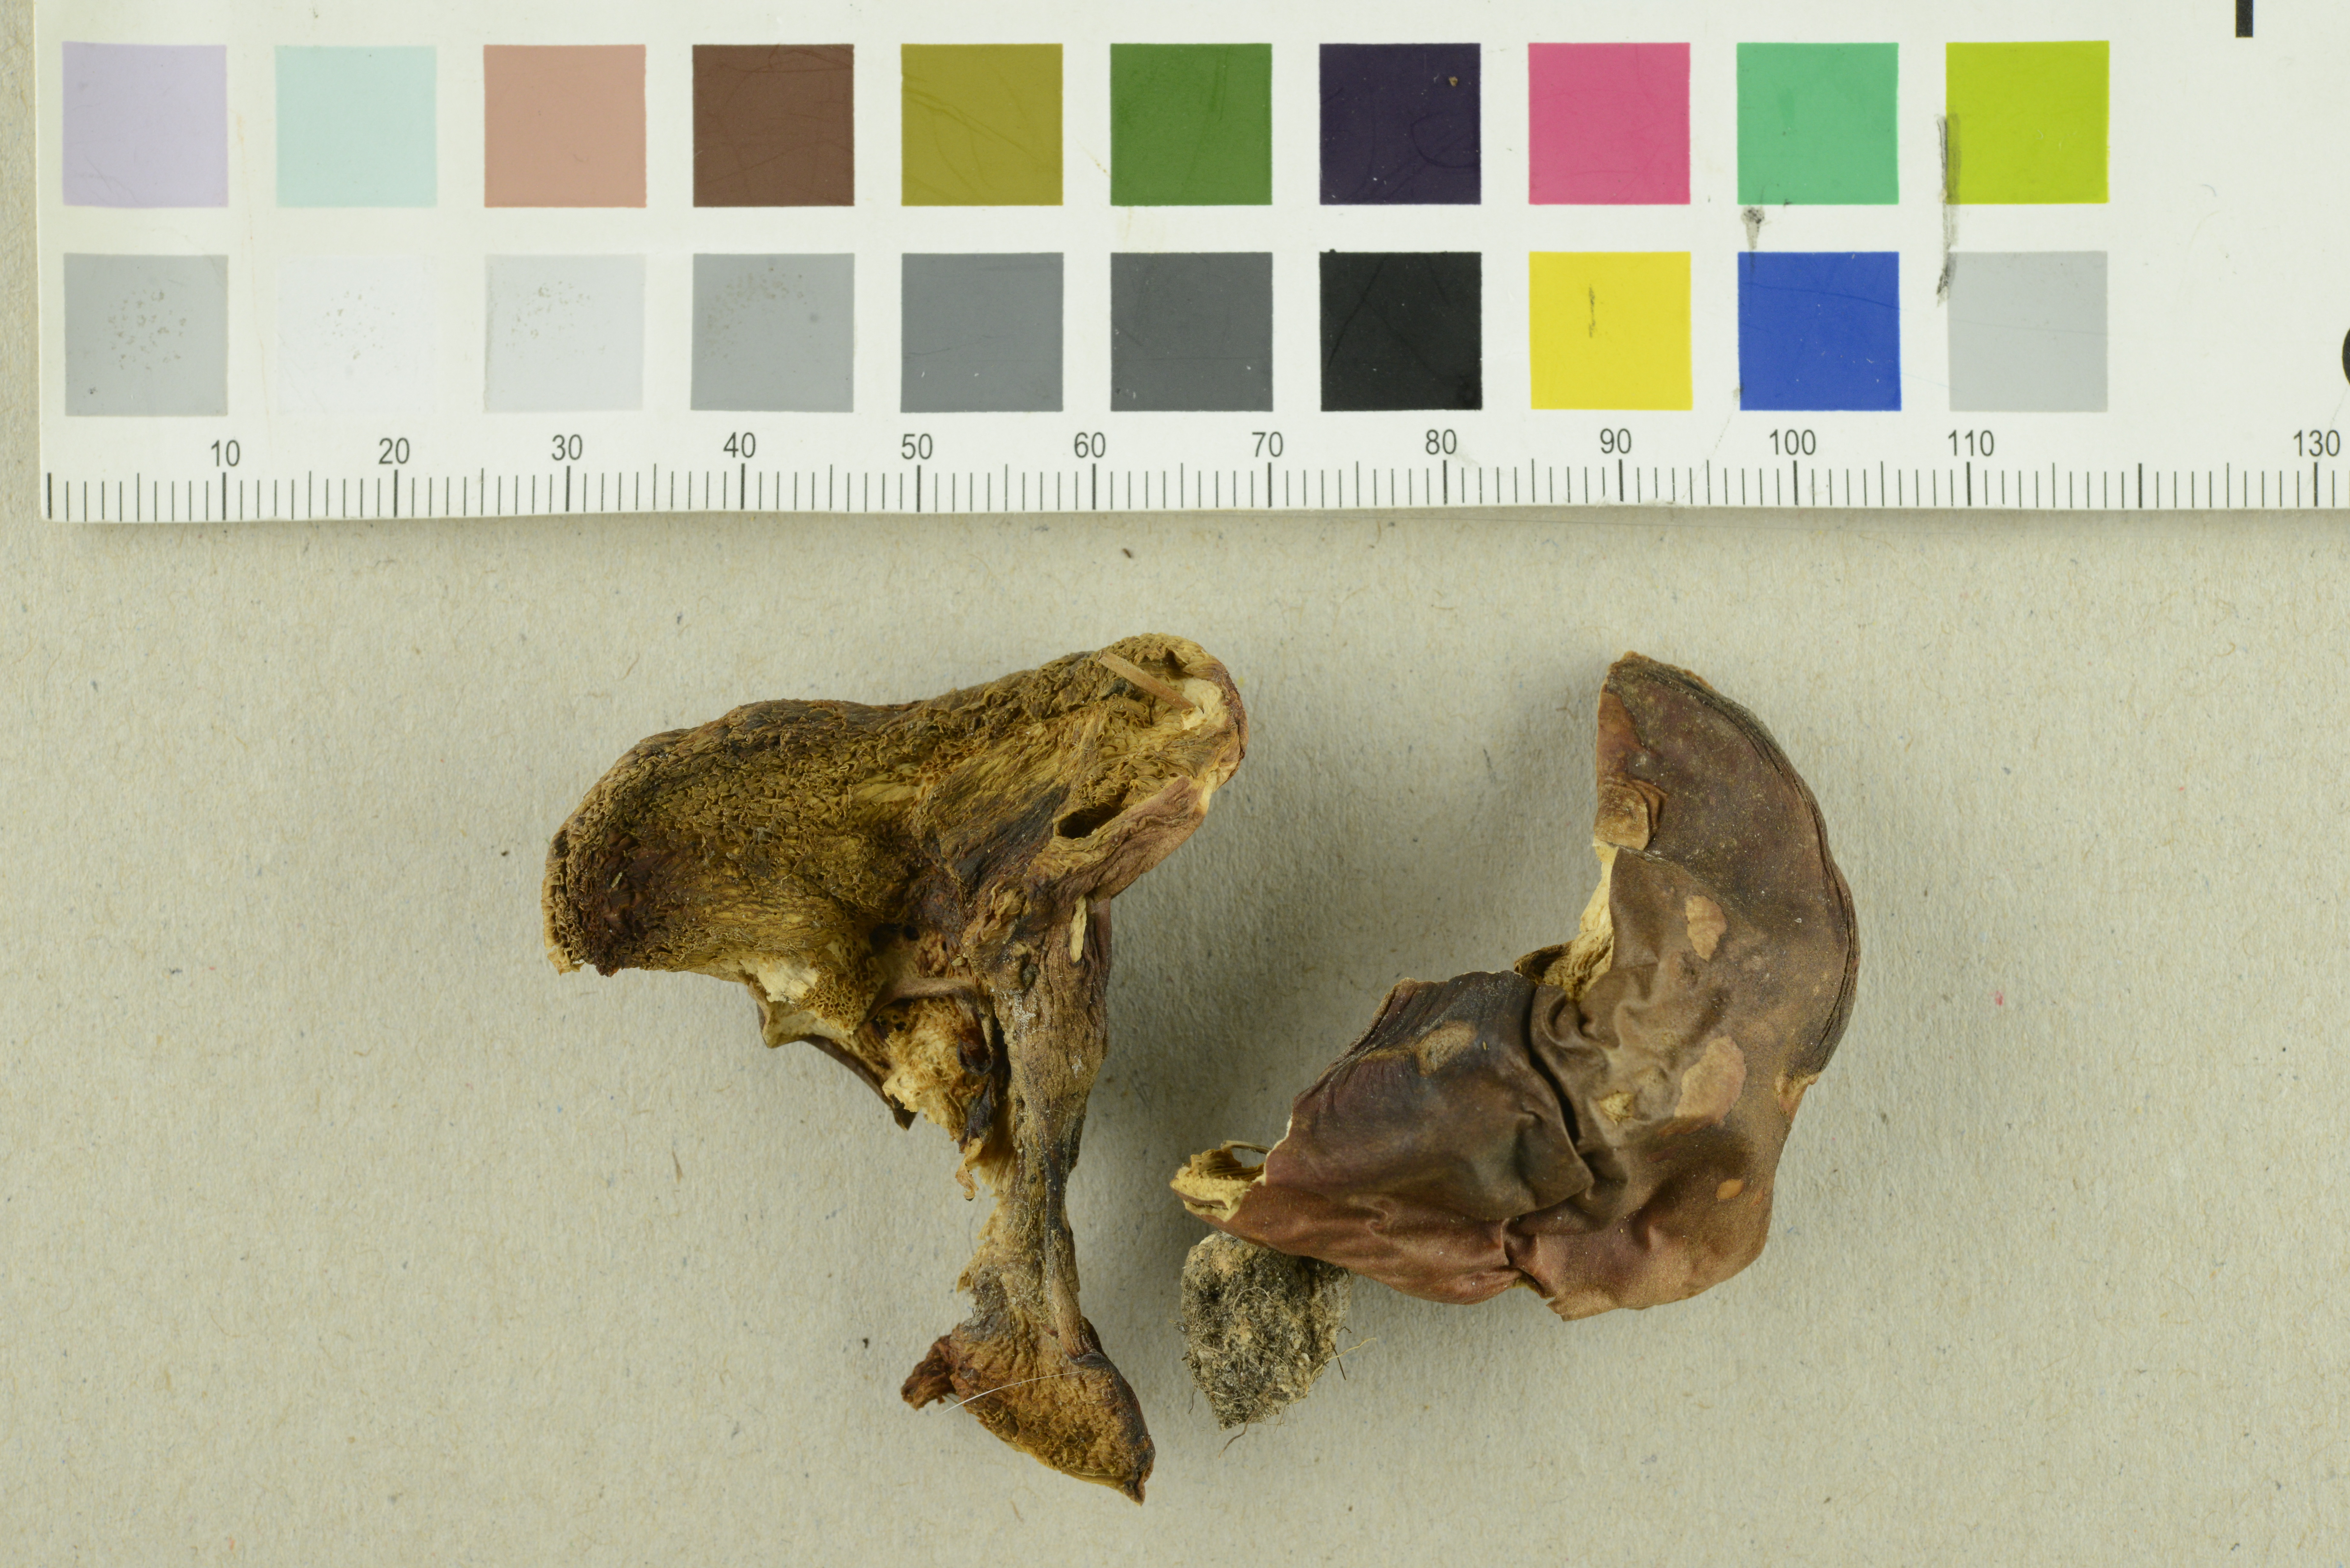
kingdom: Fungi
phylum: Basidiomycota
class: Agaricomycetes
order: Boletales
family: Gyroporaceae
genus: Gyroporus
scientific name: Gyroporus castaneus
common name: Chestnut bolete
